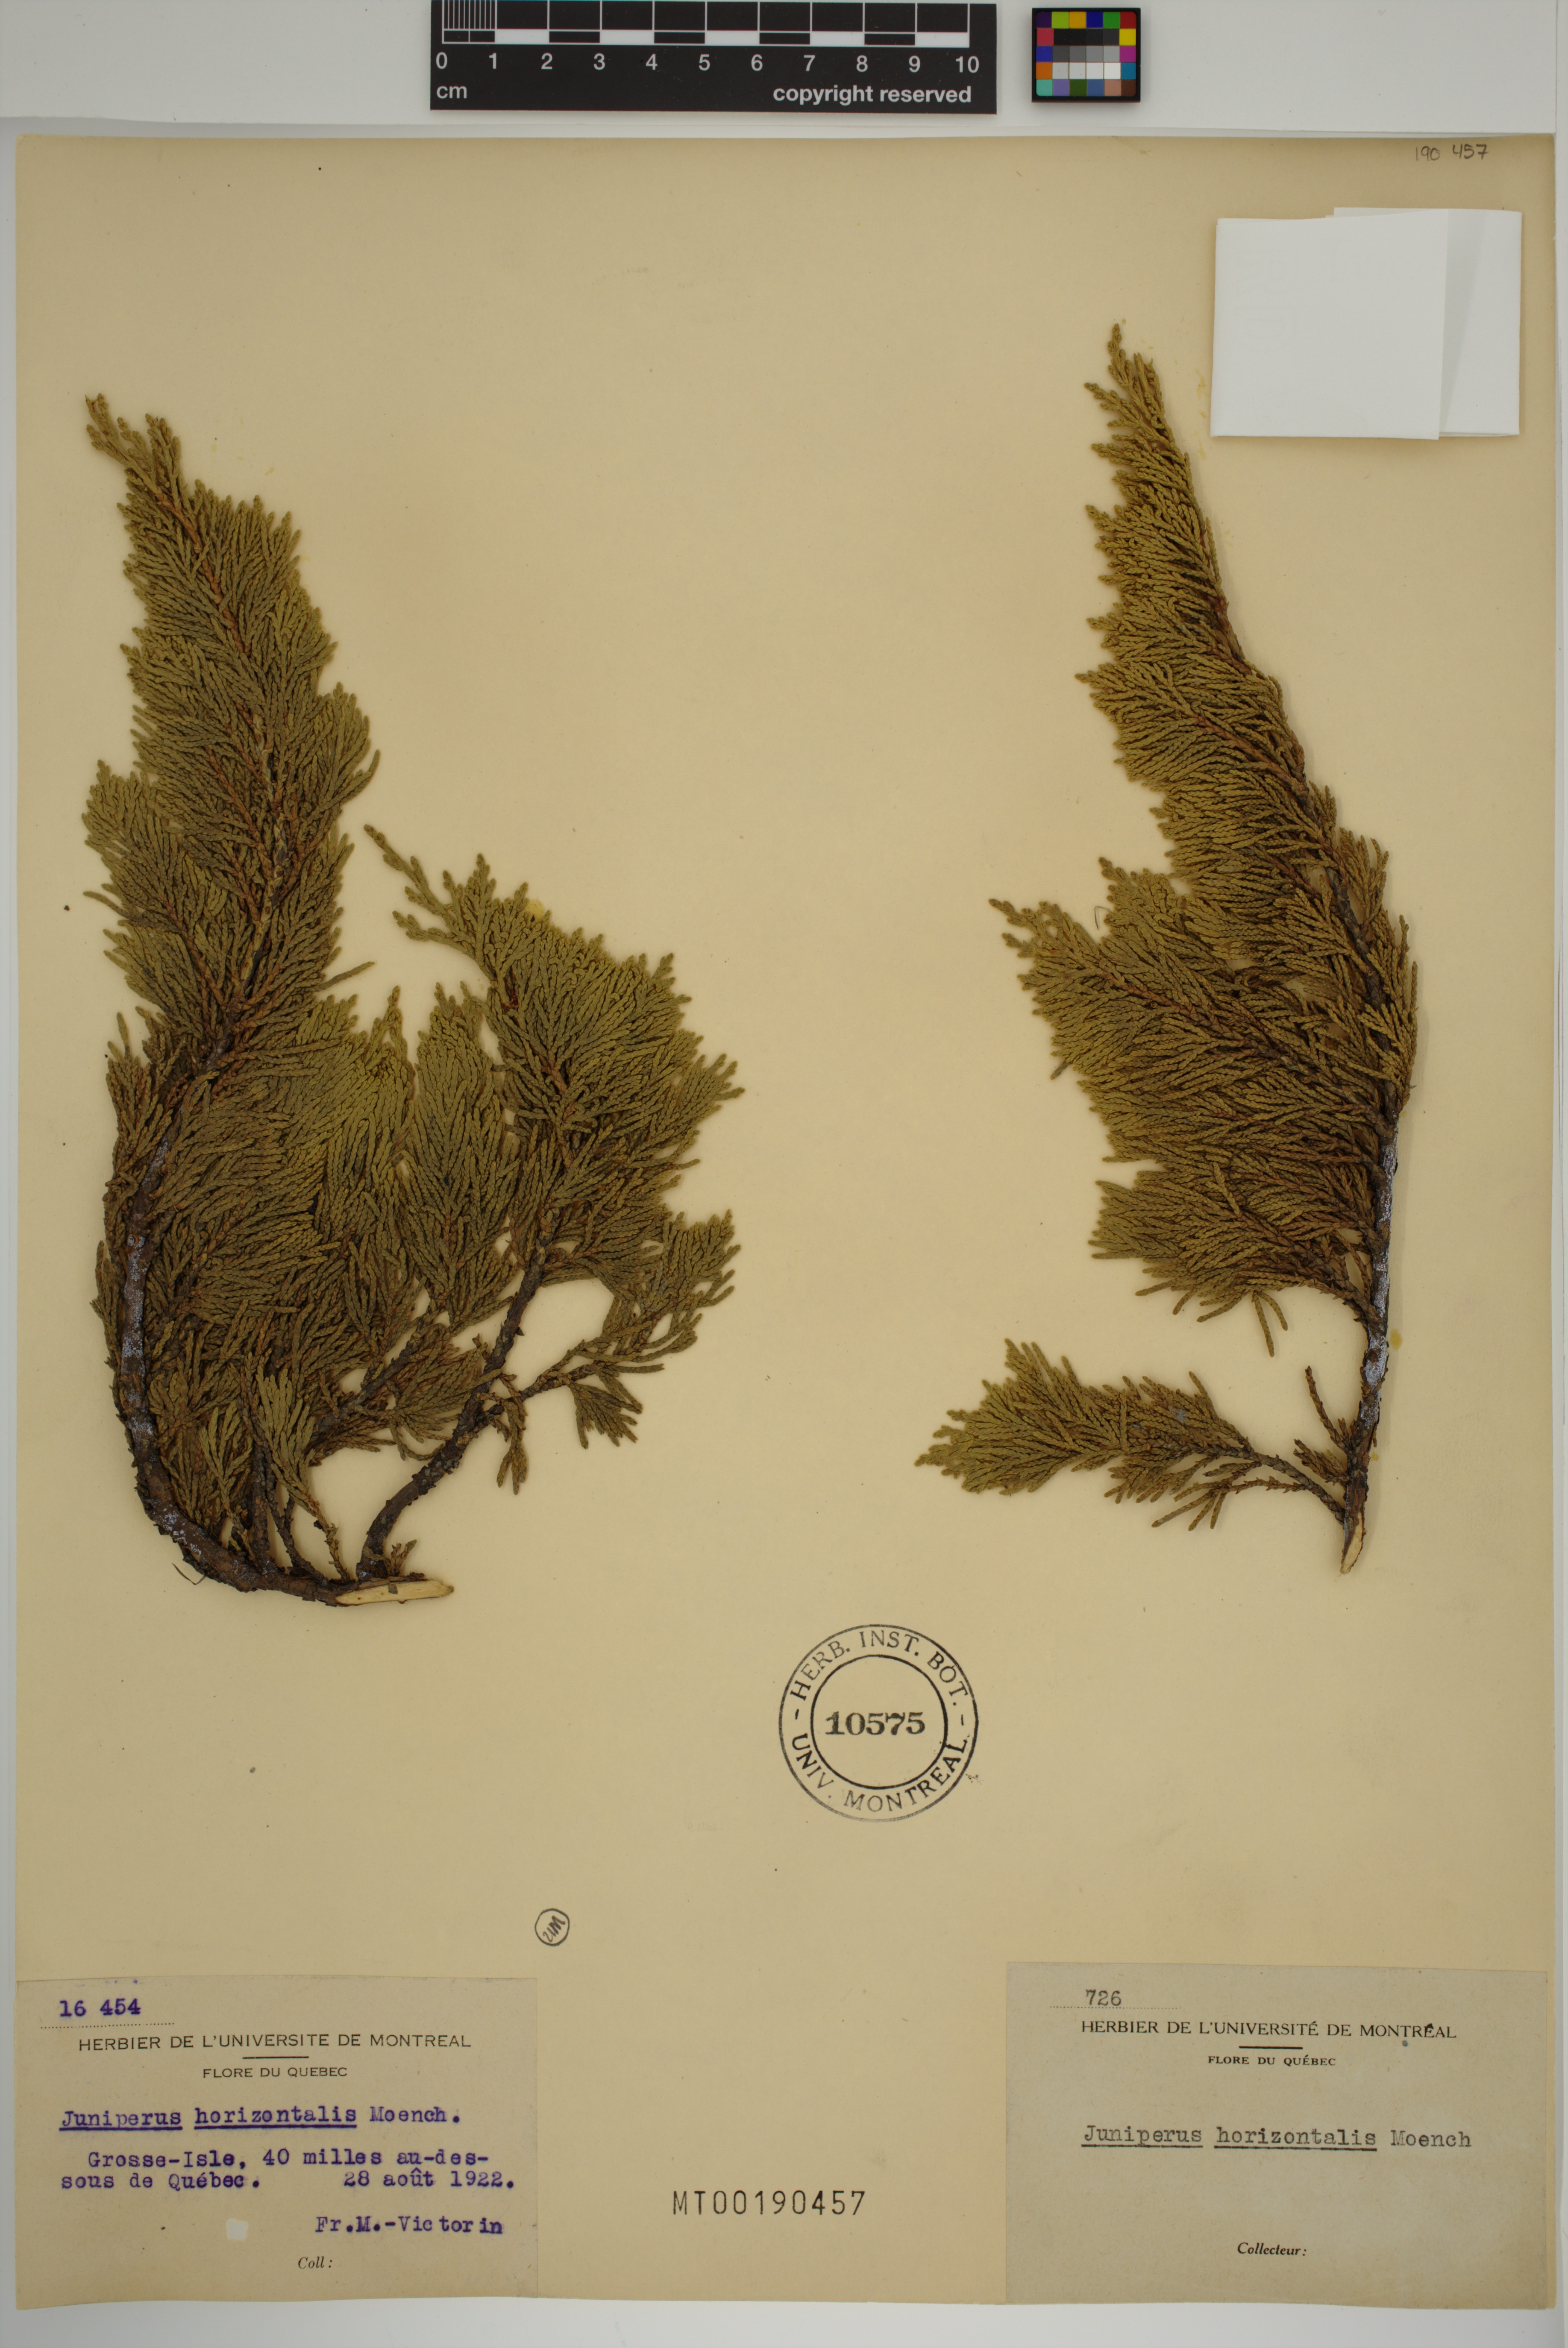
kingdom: Plantae
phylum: Tracheophyta
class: Pinopsida
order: Pinales
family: Cupressaceae
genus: Juniperus
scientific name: Juniperus horizontalis
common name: Creeping juniper
